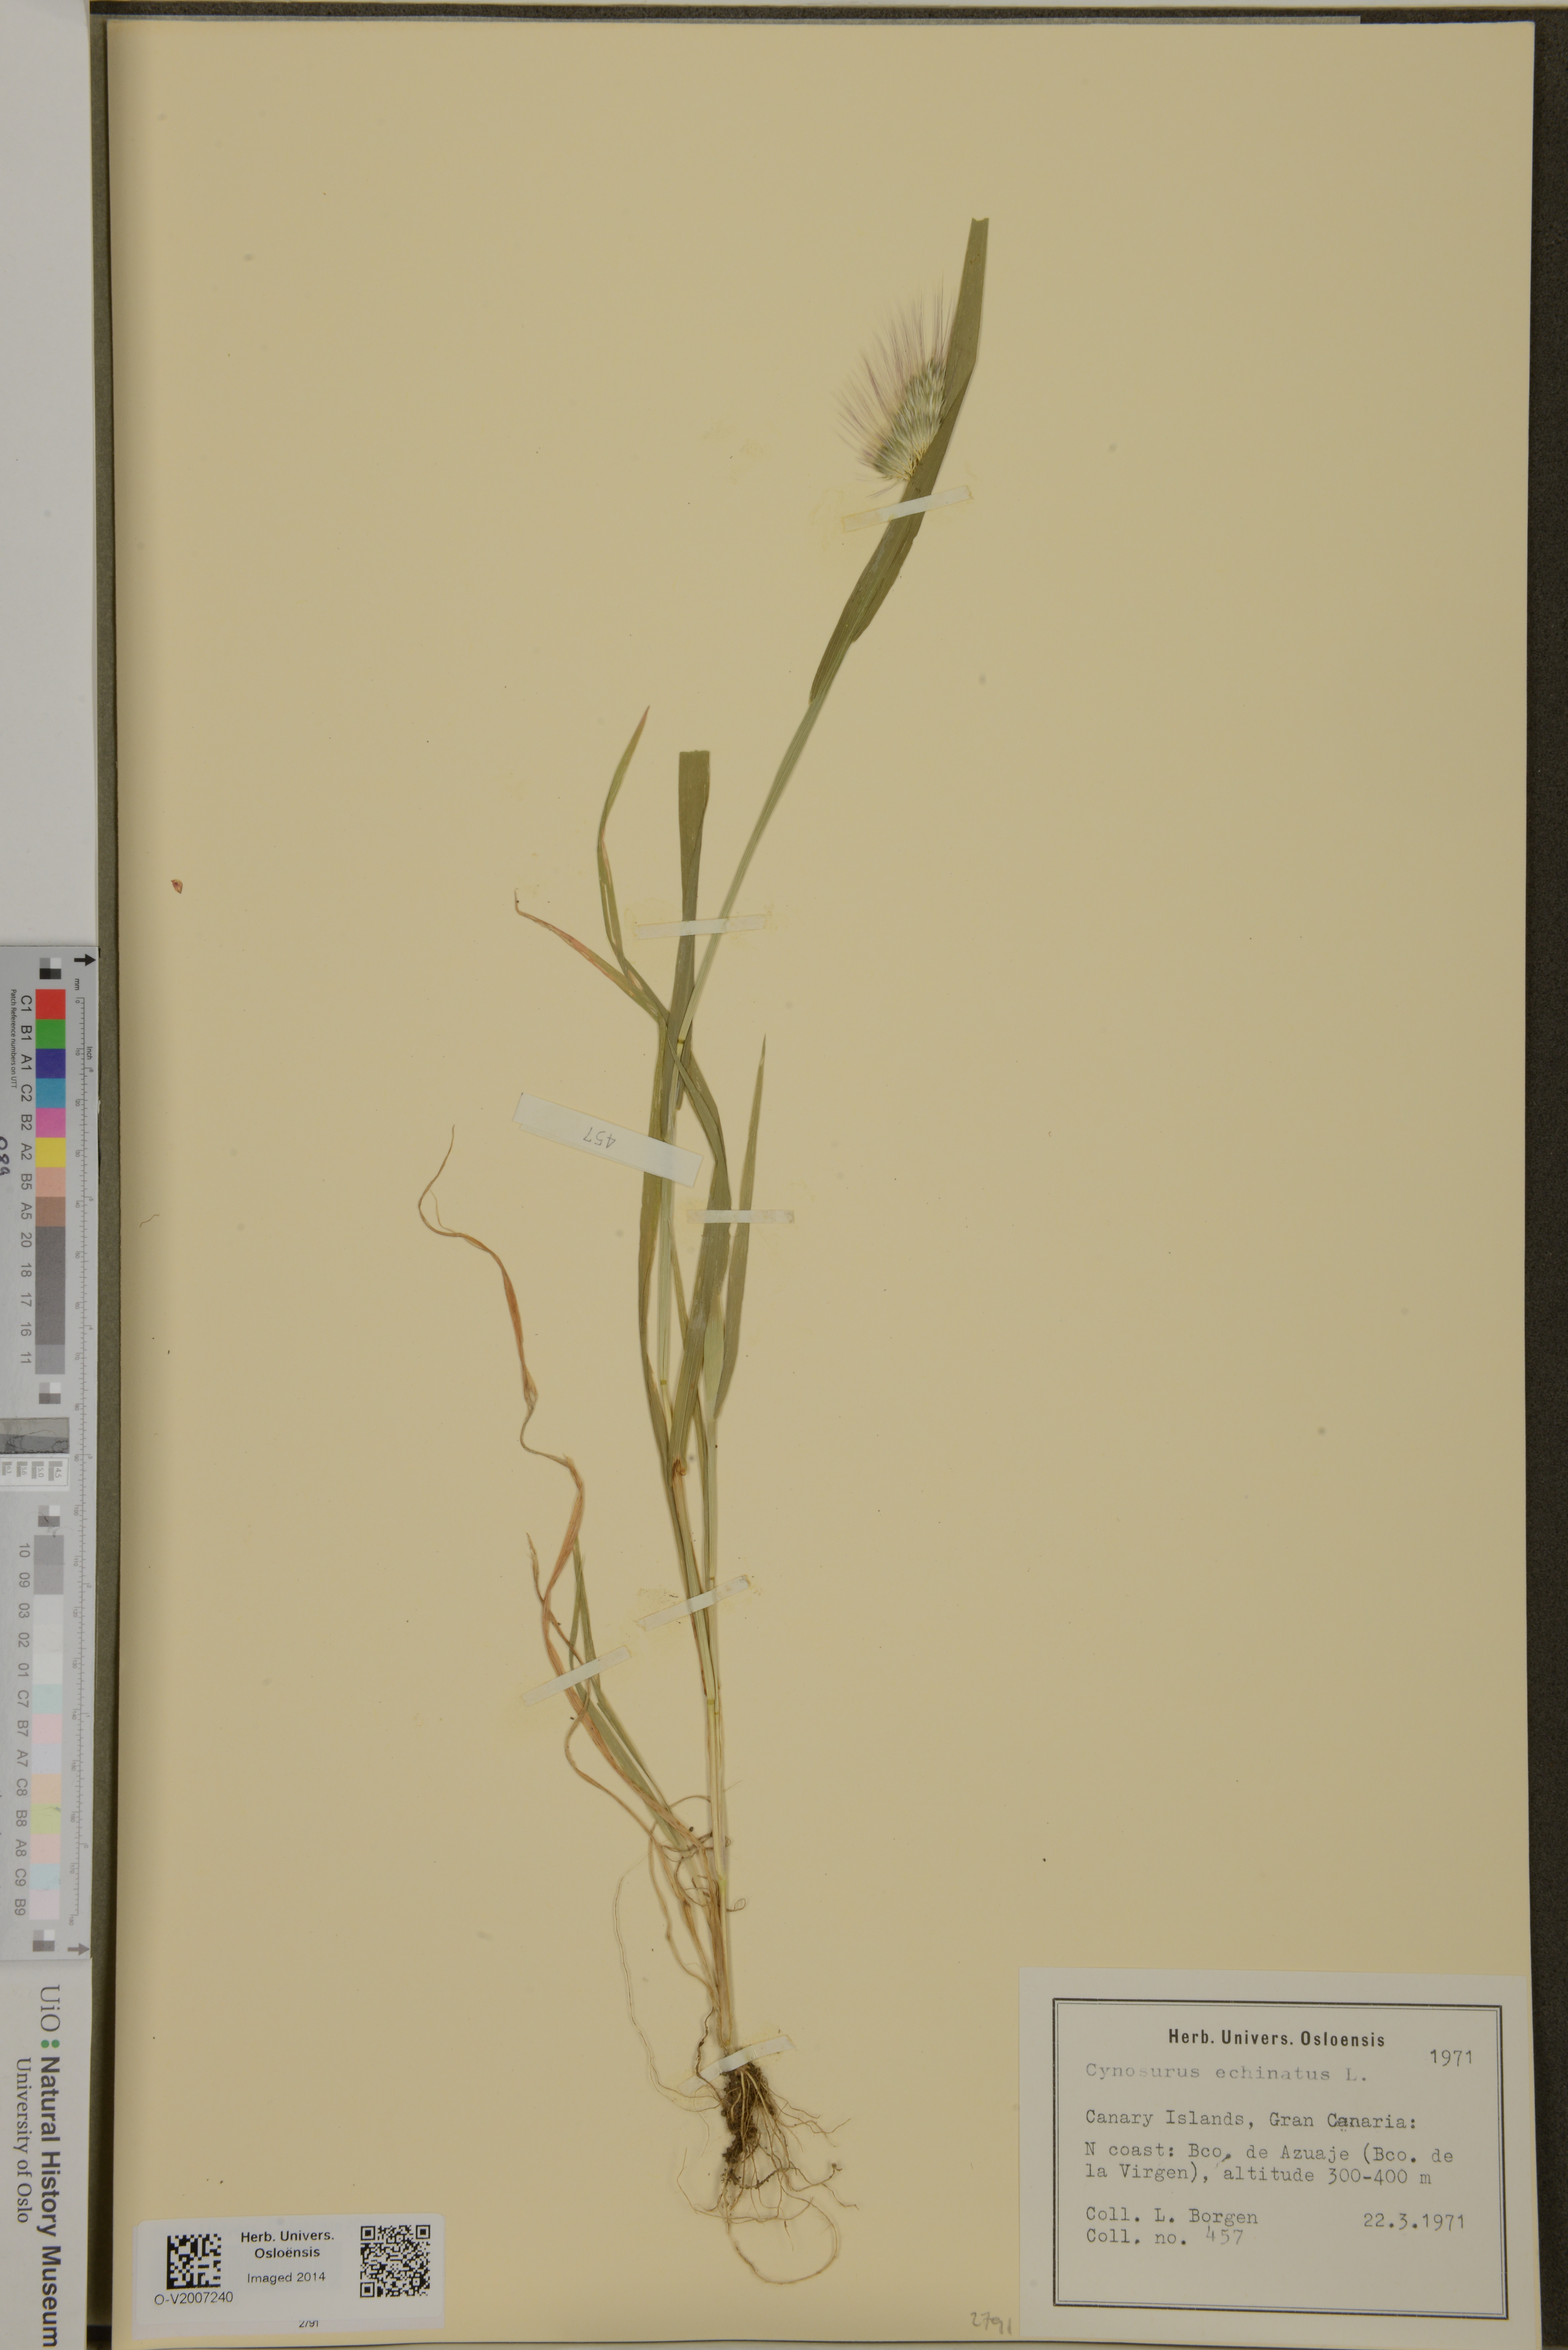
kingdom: Plantae
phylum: Tracheophyta
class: Liliopsida
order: Poales
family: Poaceae
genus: Cynosurus
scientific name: Cynosurus echinatus
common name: Rough dog's-tail
